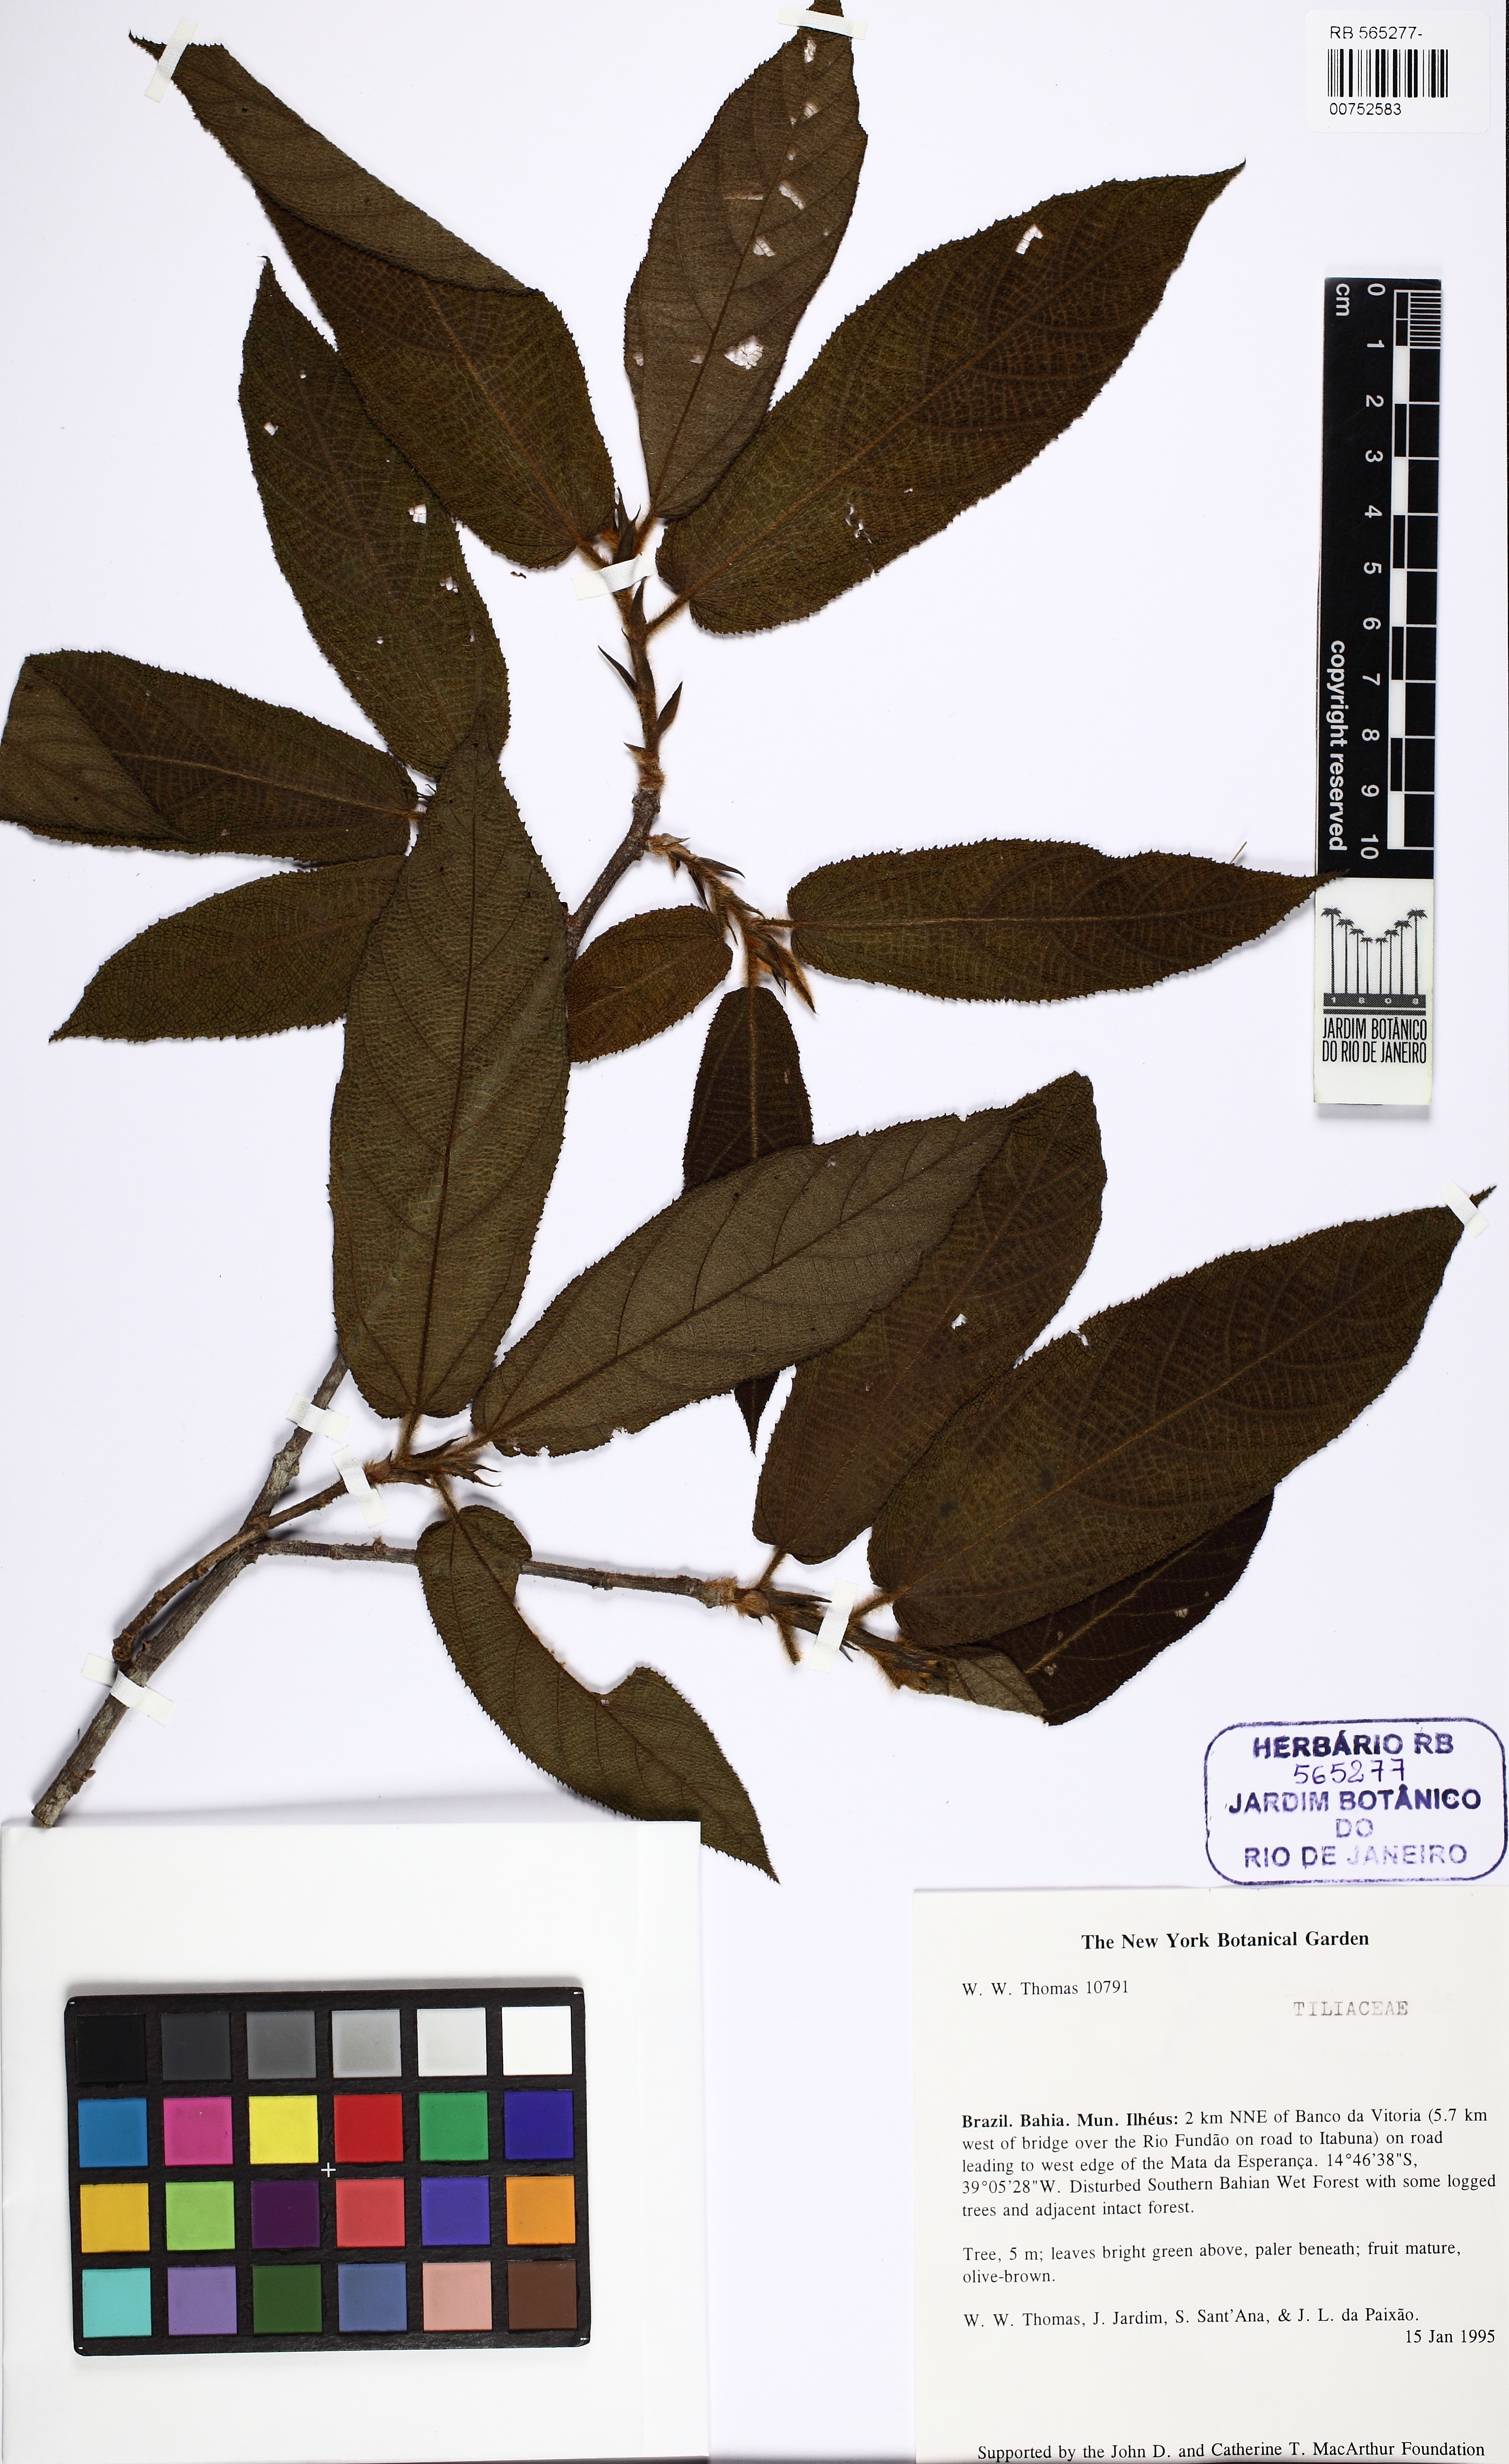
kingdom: Plantae
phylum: Tracheophyta
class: Magnoliopsida
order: Malvales
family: Malvaceae
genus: Apeiba
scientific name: Apeiba albiflora
